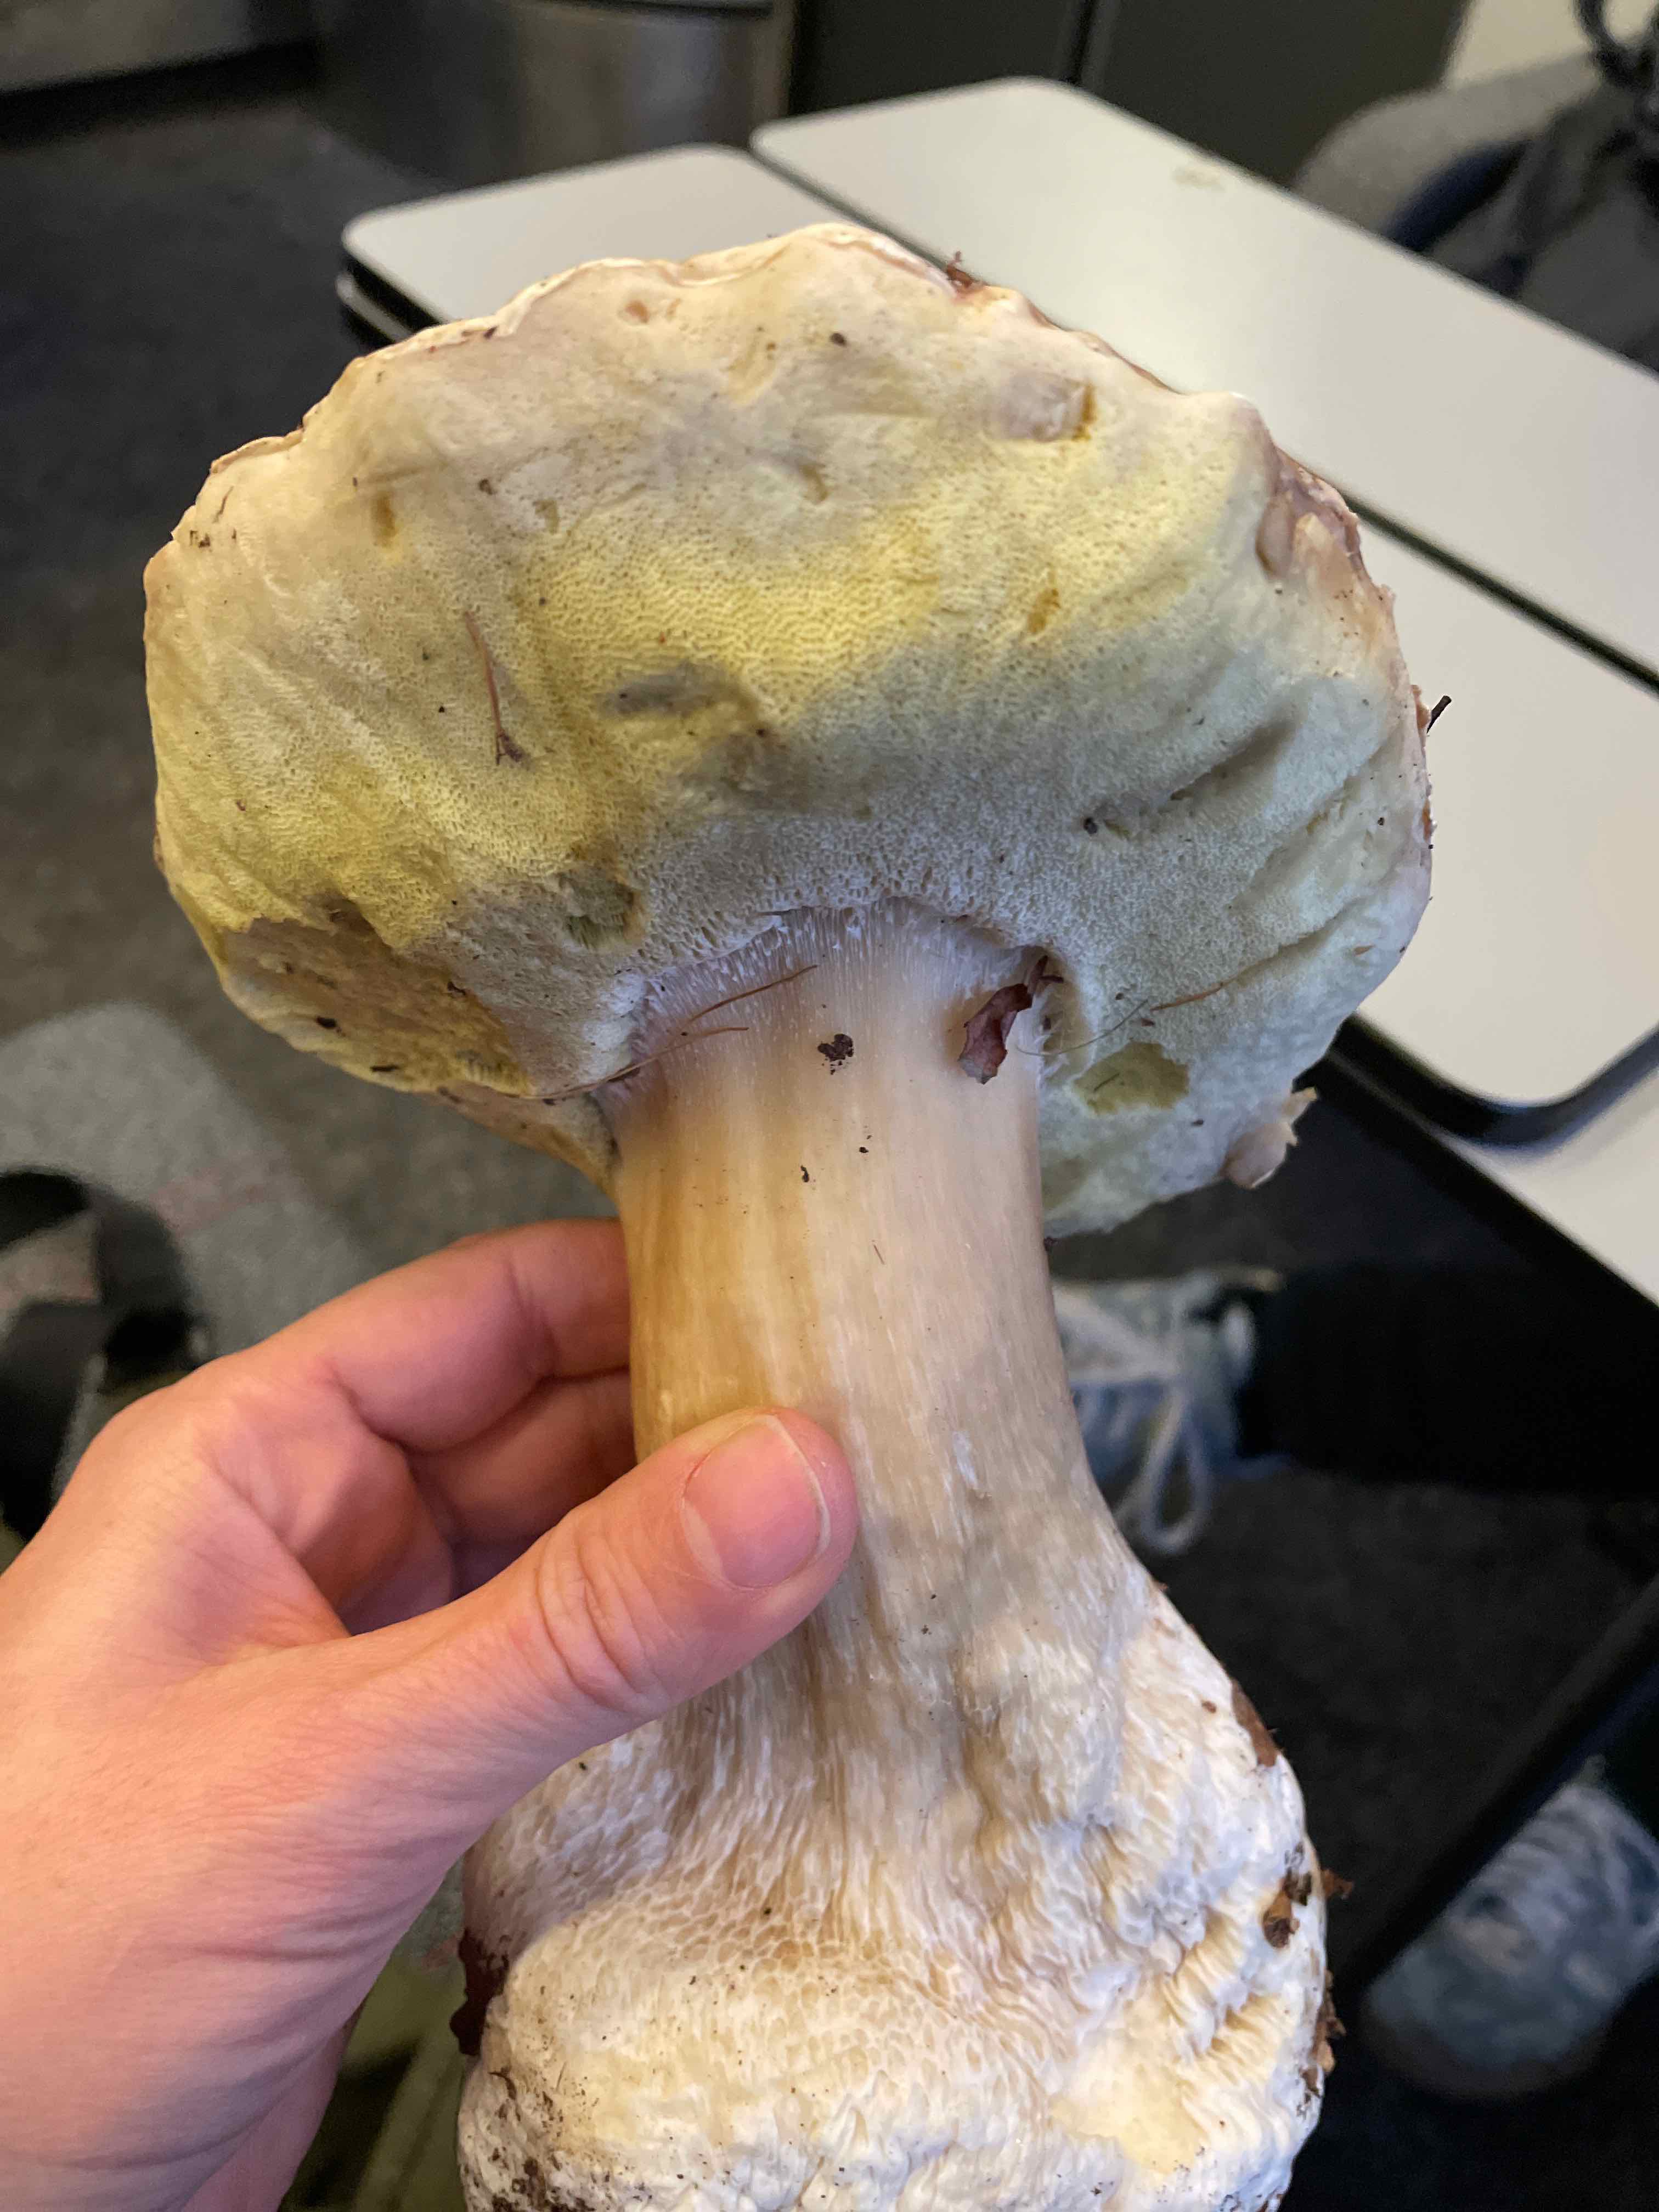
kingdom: Fungi
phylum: Basidiomycota
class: Agaricomycetes
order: Boletales
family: Boletaceae
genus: Boletus
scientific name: Boletus edulis
